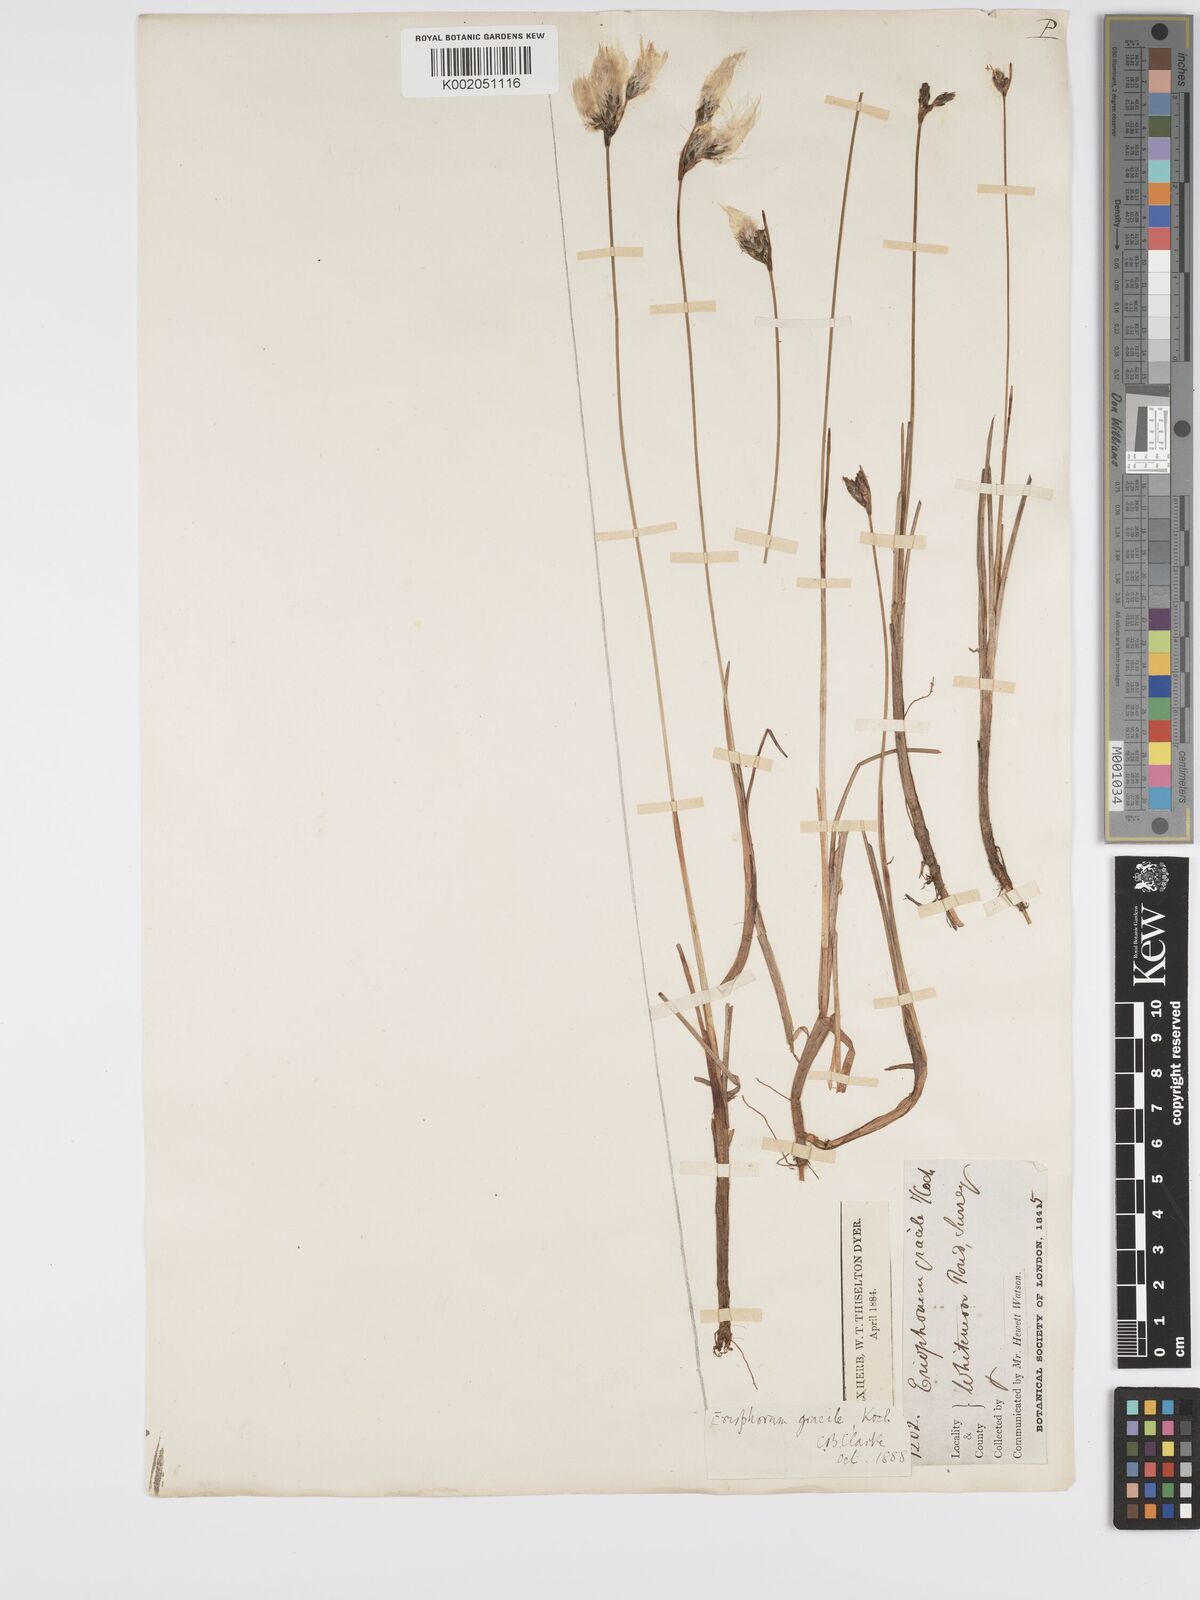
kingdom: Plantae
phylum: Tracheophyta
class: Liliopsida
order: Poales
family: Cyperaceae
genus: Eriophorum
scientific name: Eriophorum gracile
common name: Slender cottongrass
